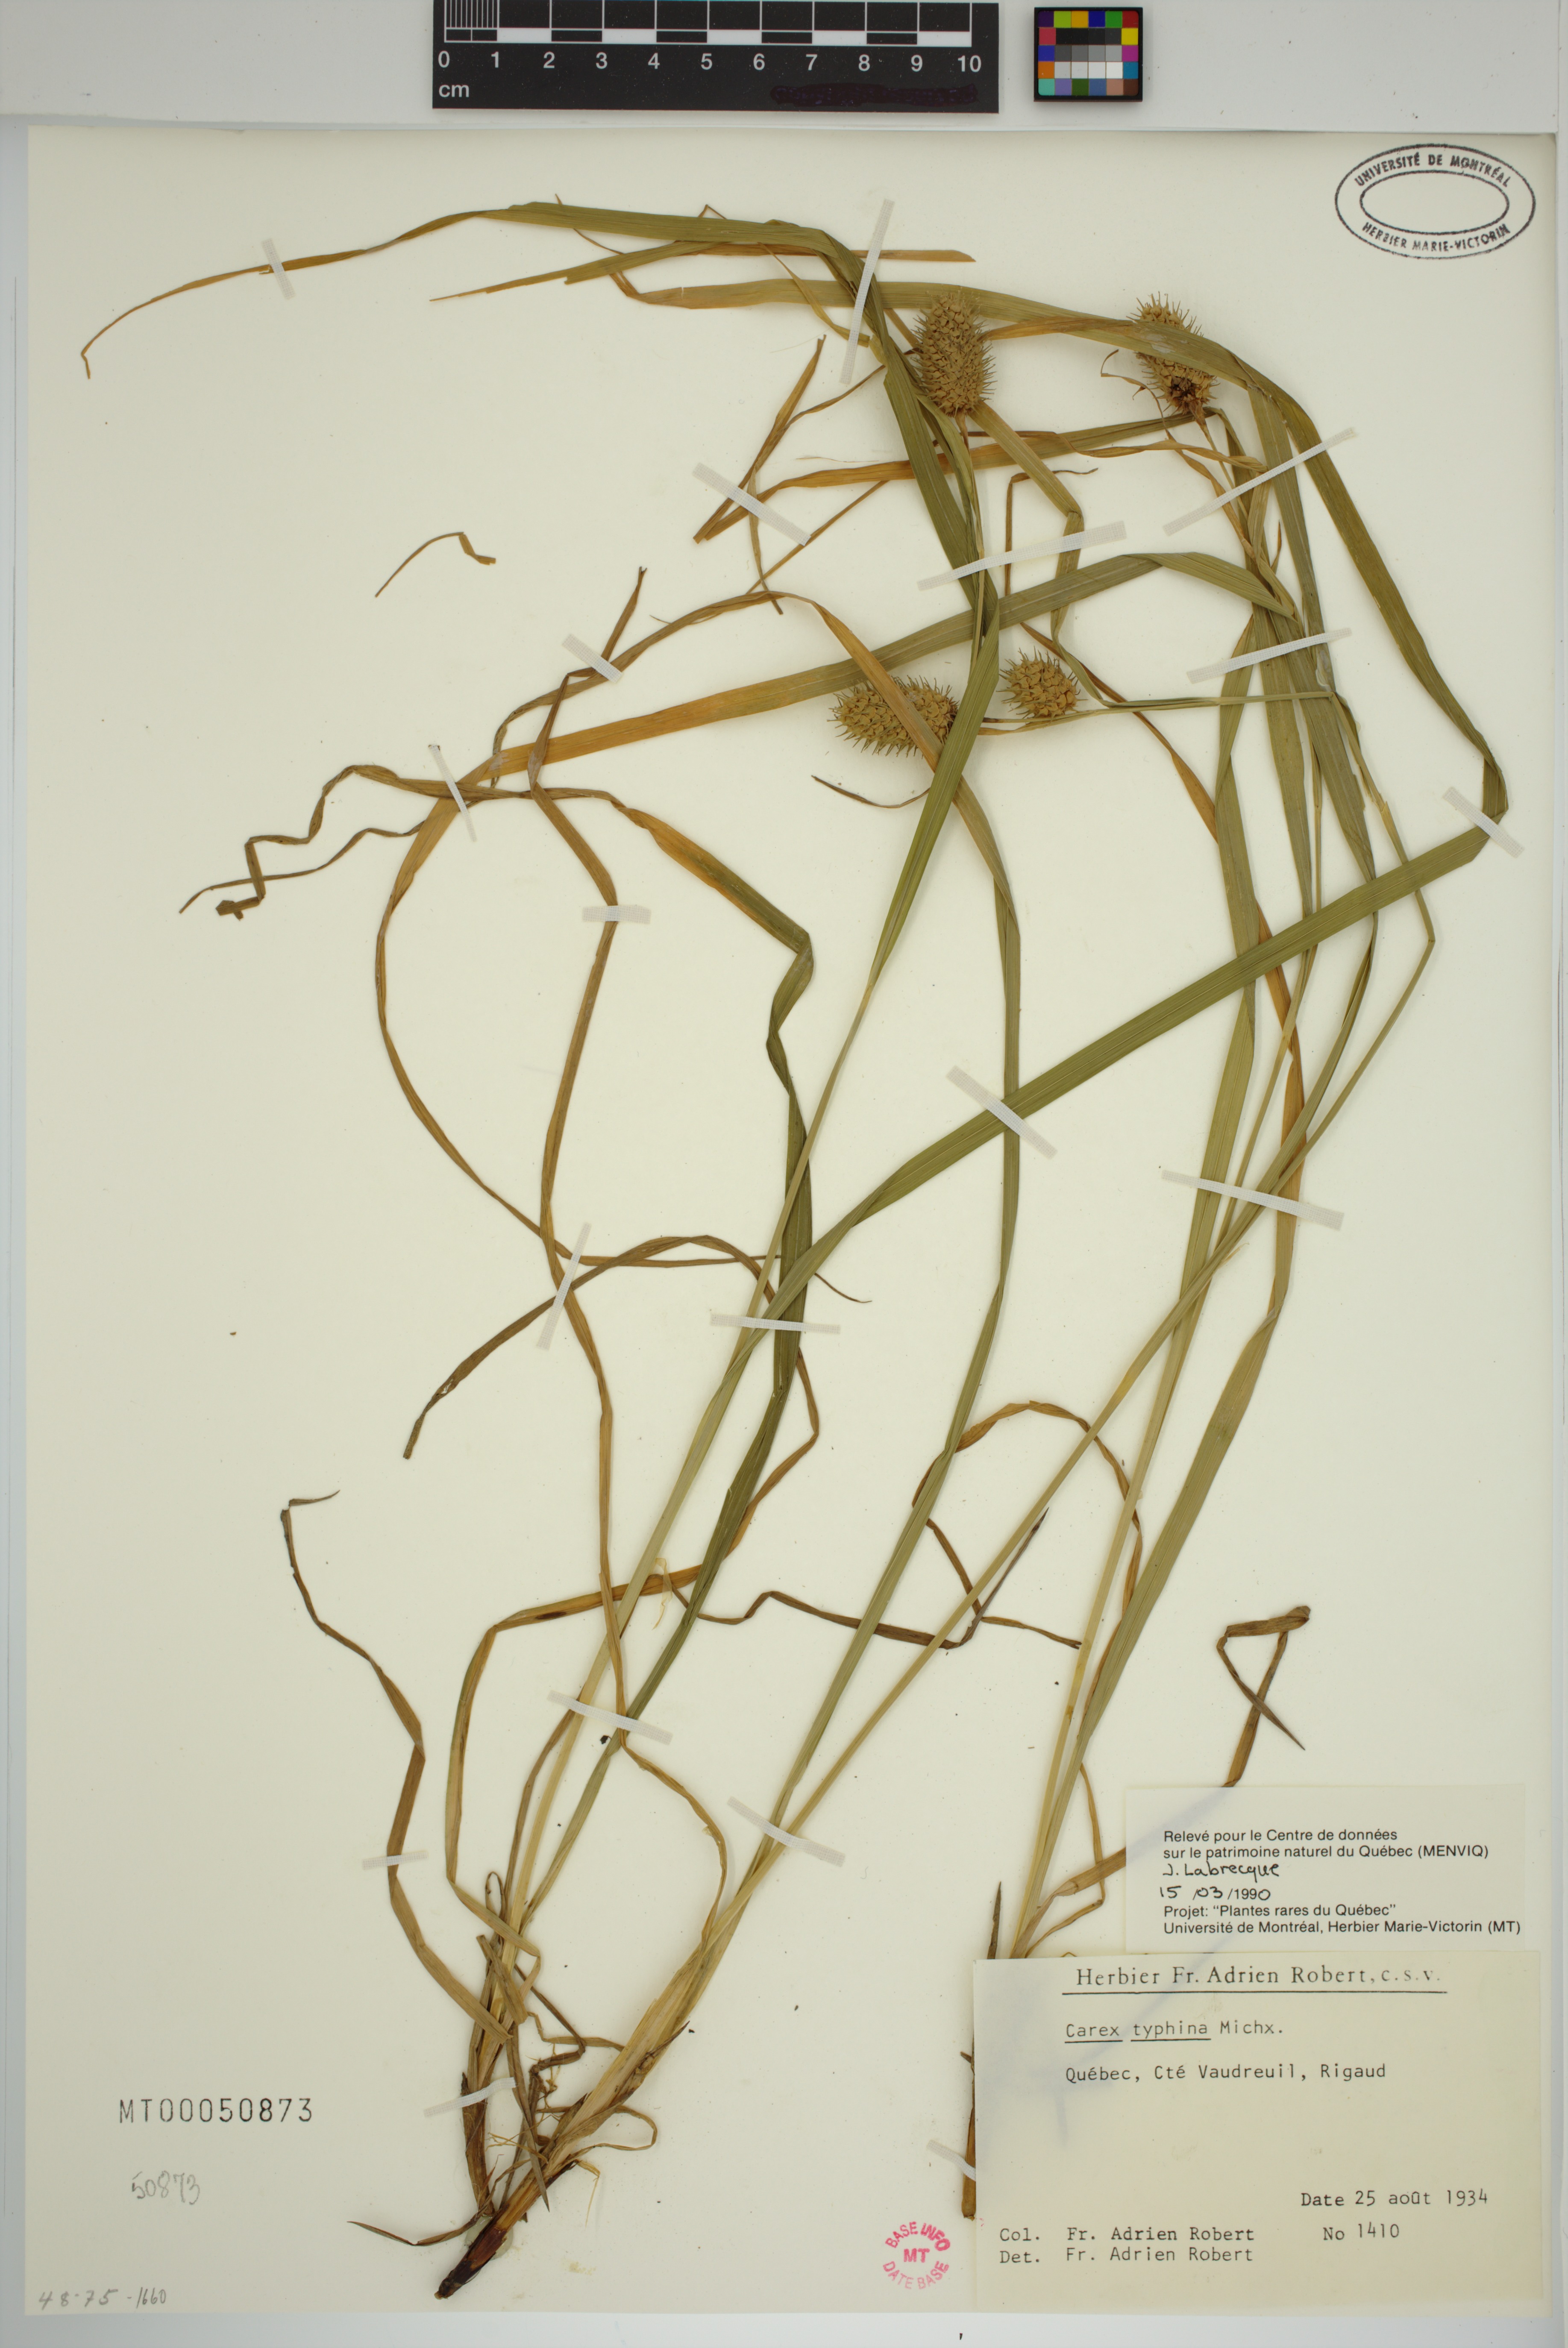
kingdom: Plantae
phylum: Tracheophyta
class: Liliopsida
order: Poales
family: Cyperaceae
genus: Carex
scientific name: Carex typhina
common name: Cattail sedge
